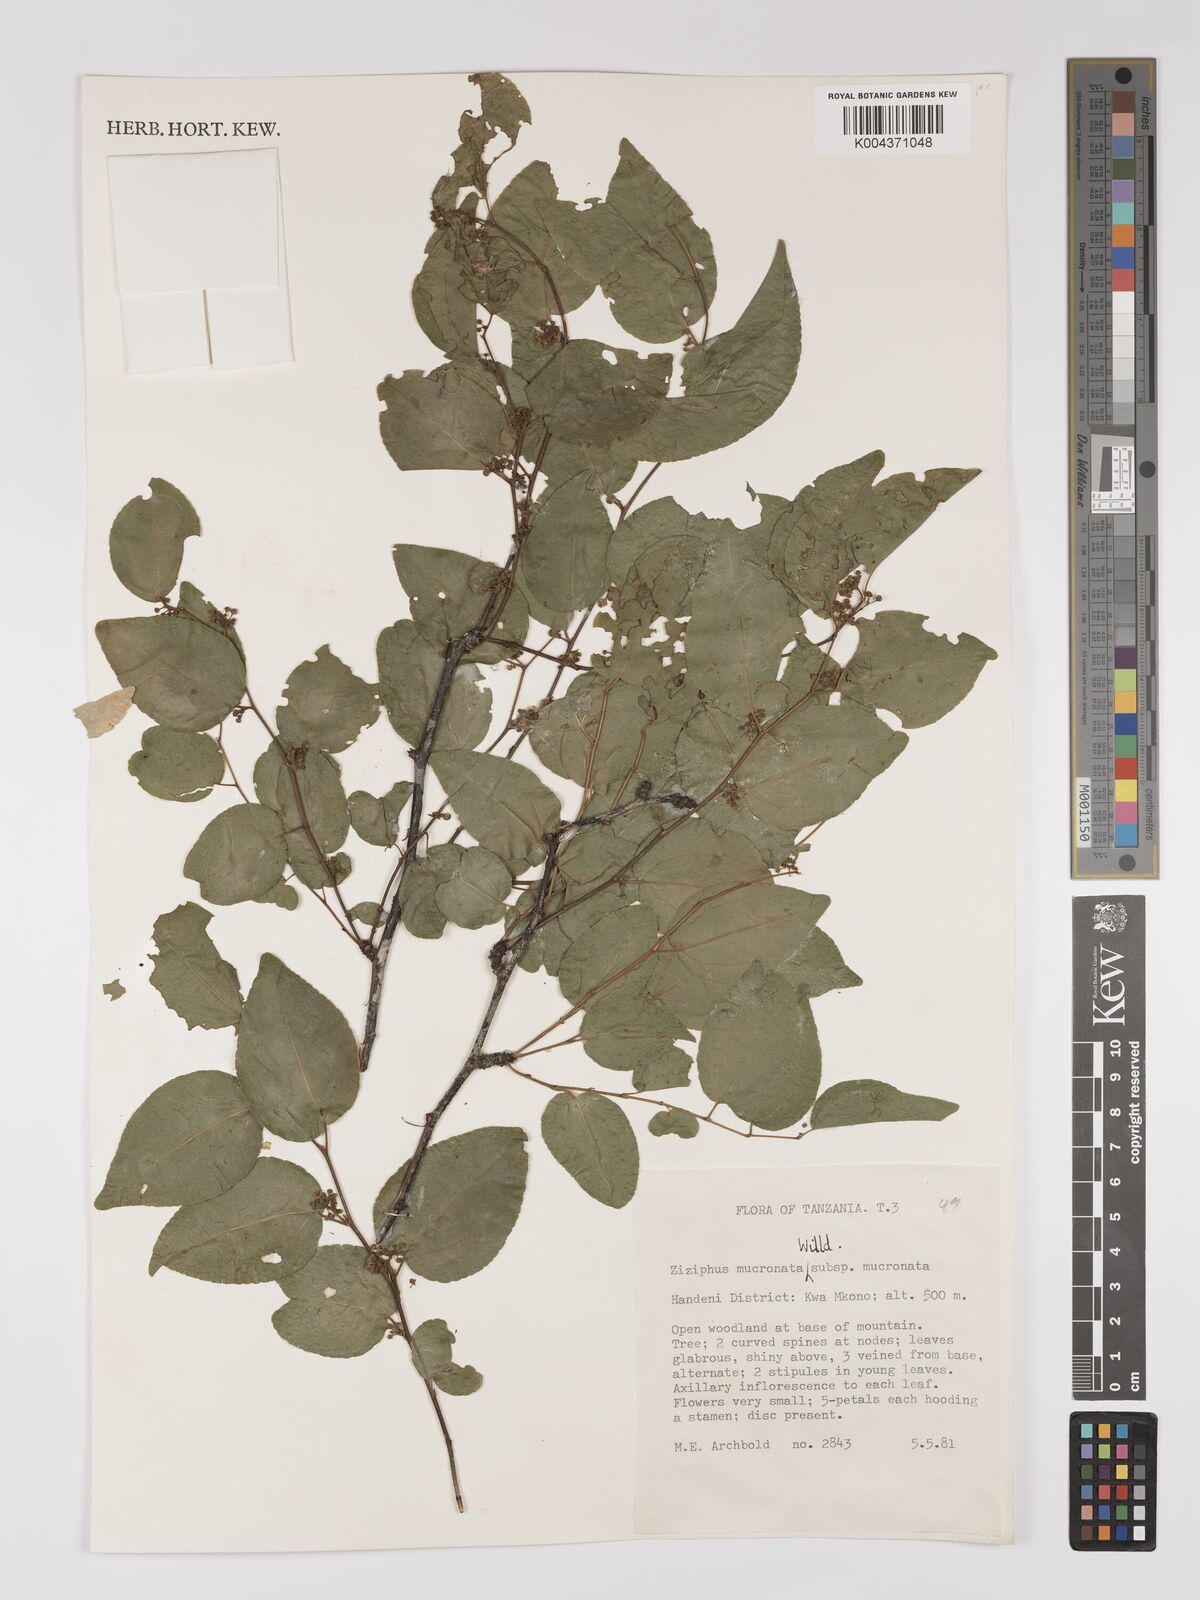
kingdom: Plantae
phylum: Tracheophyta
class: Magnoliopsida
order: Rosales
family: Rhamnaceae
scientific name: Rhamnaceae
